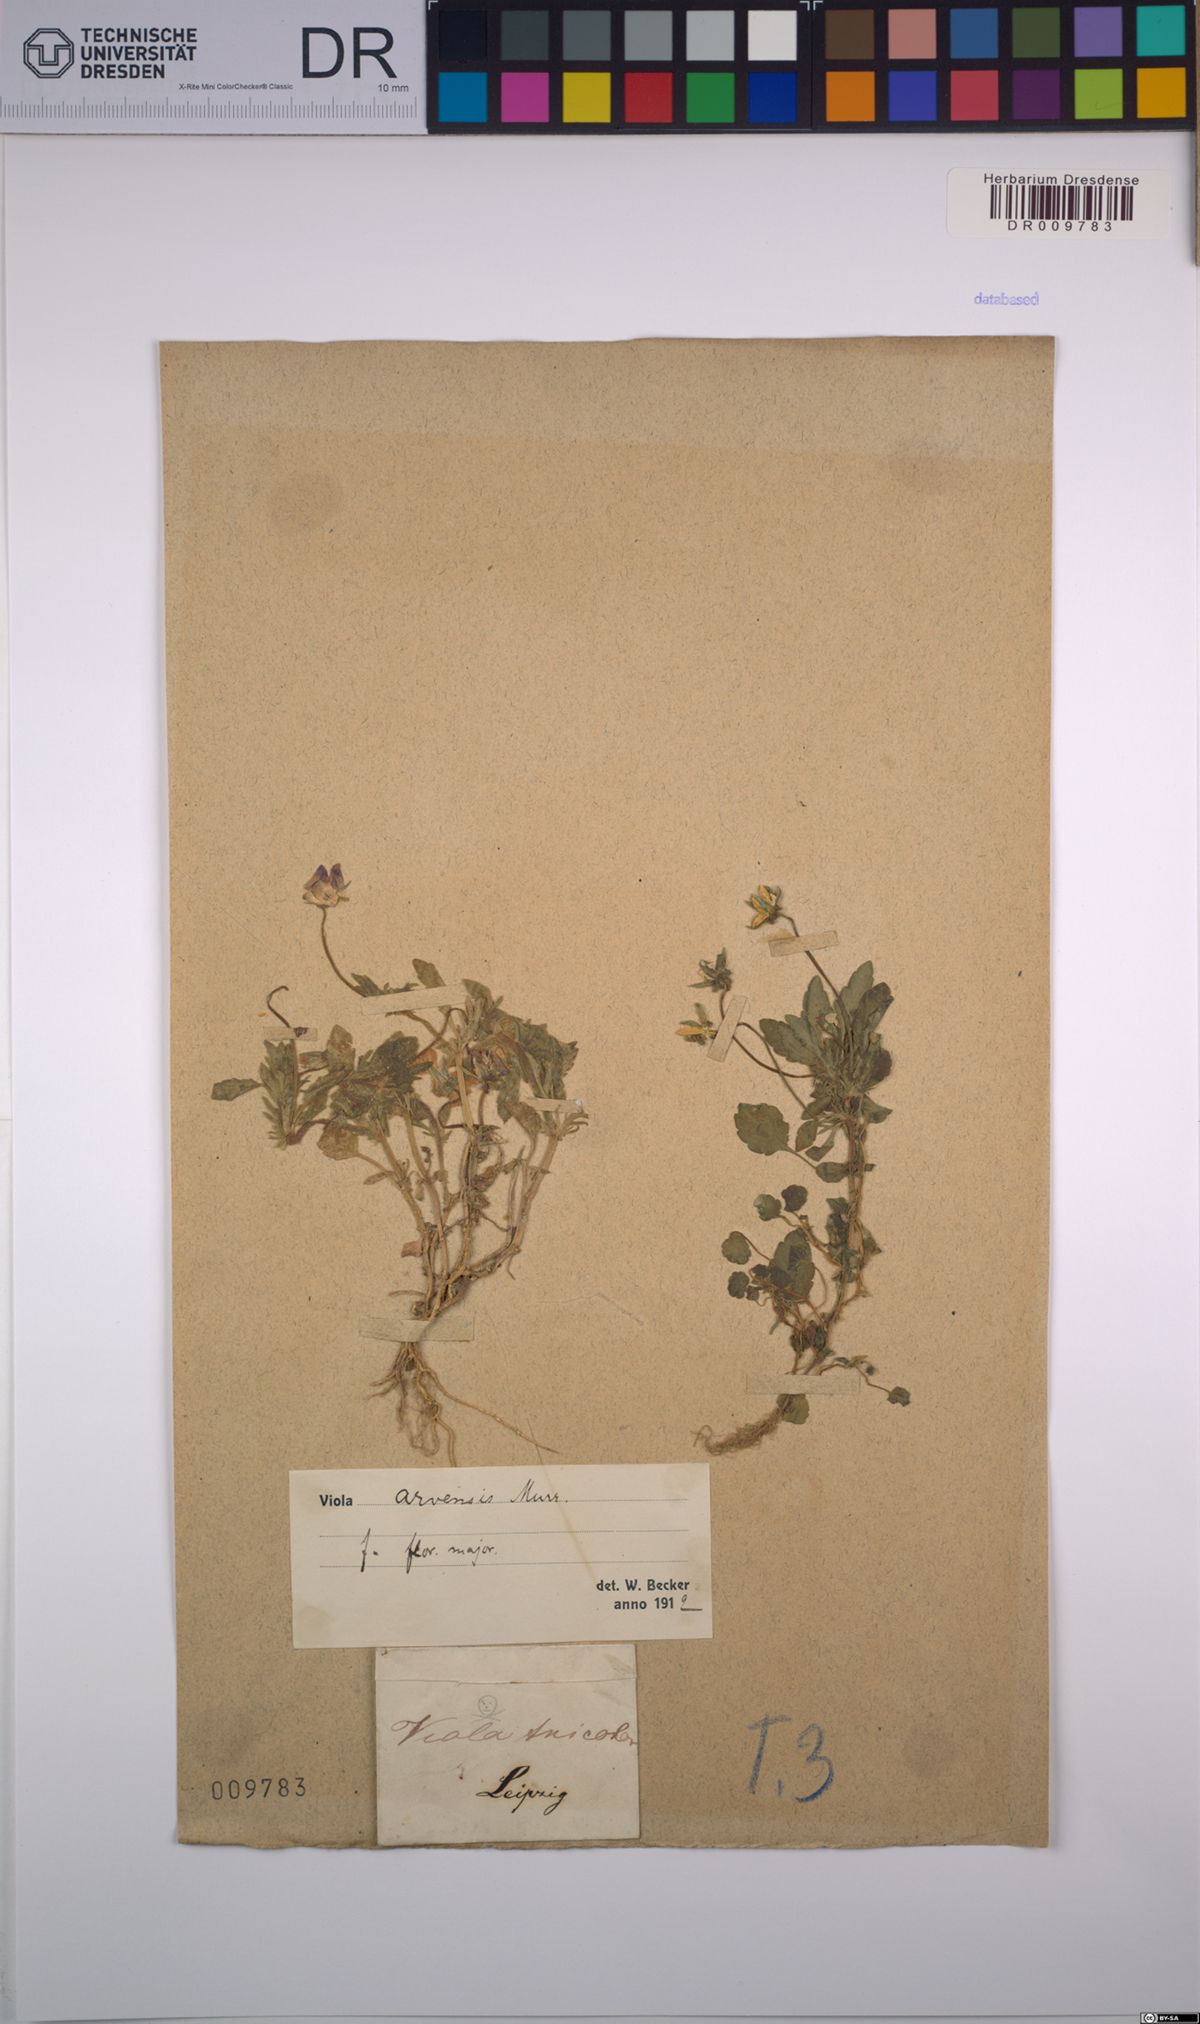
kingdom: Plantae
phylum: Tracheophyta
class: Magnoliopsida
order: Malpighiales
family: Violaceae
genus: Viola
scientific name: Viola arvensis
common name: Field pansy
